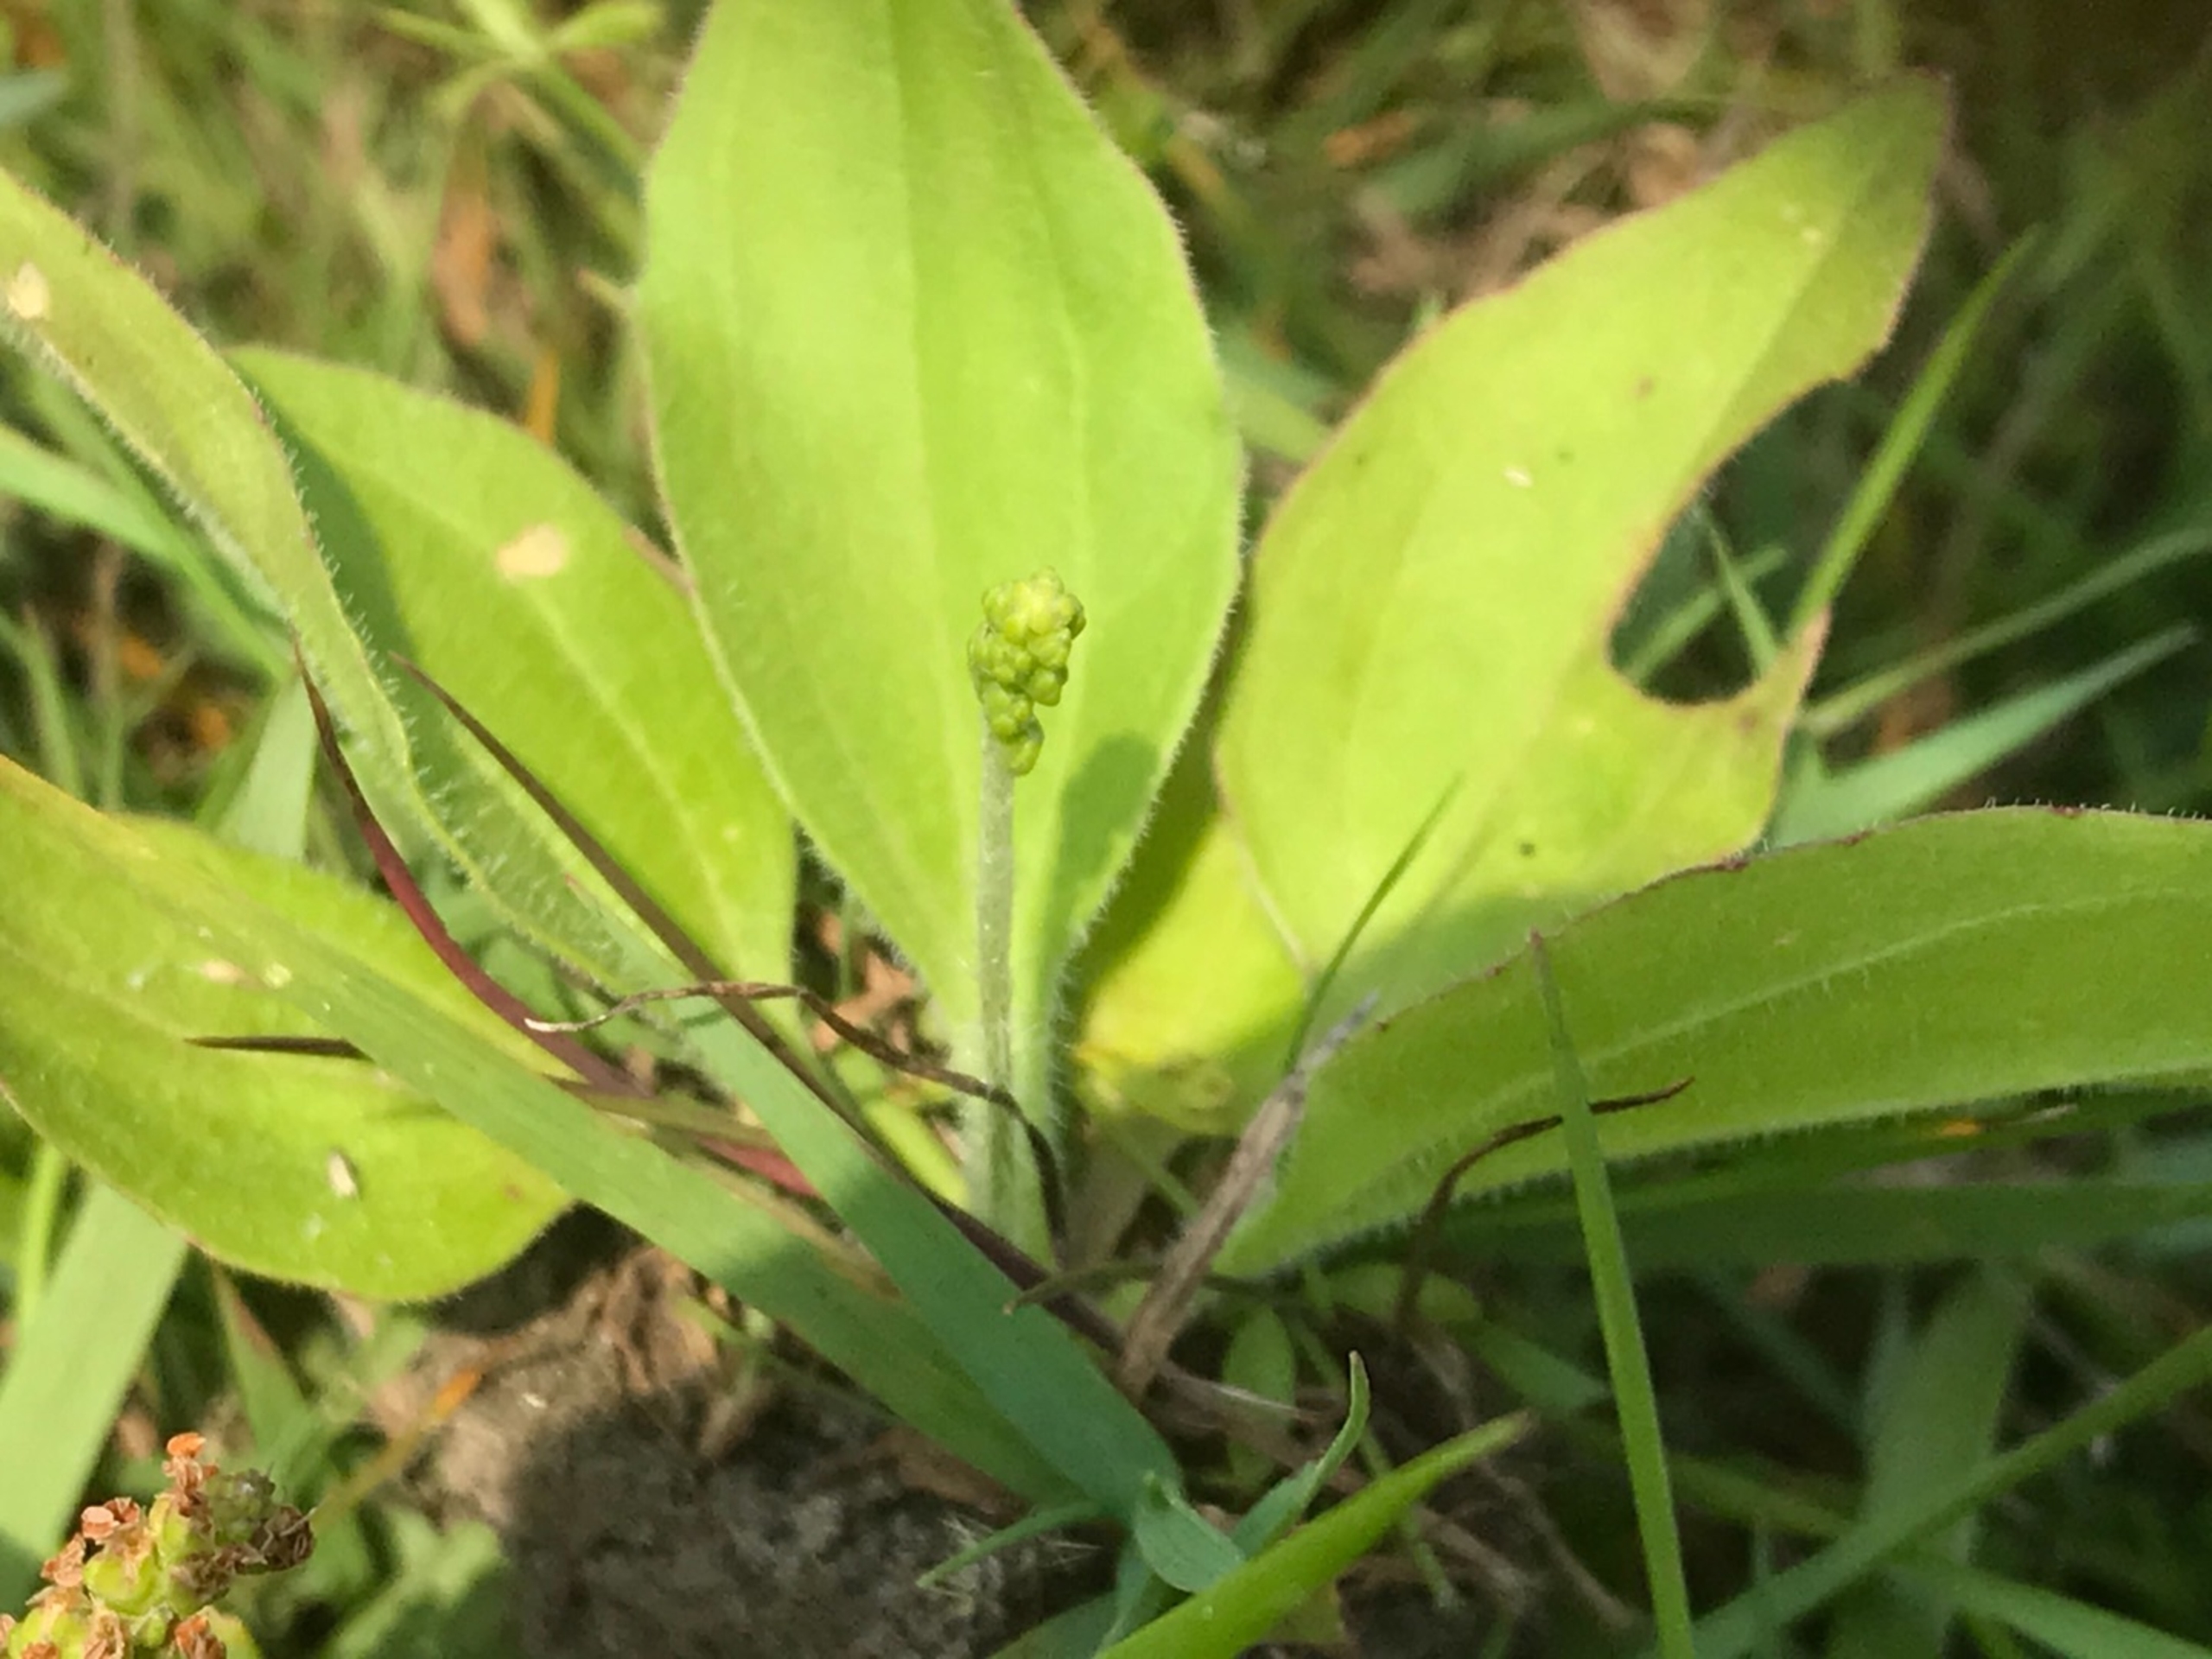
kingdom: Plantae
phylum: Tracheophyta
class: Magnoliopsida
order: Lamiales
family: Plantaginaceae
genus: Plantago
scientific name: Plantago uliginosa
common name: Ager-vejbred
